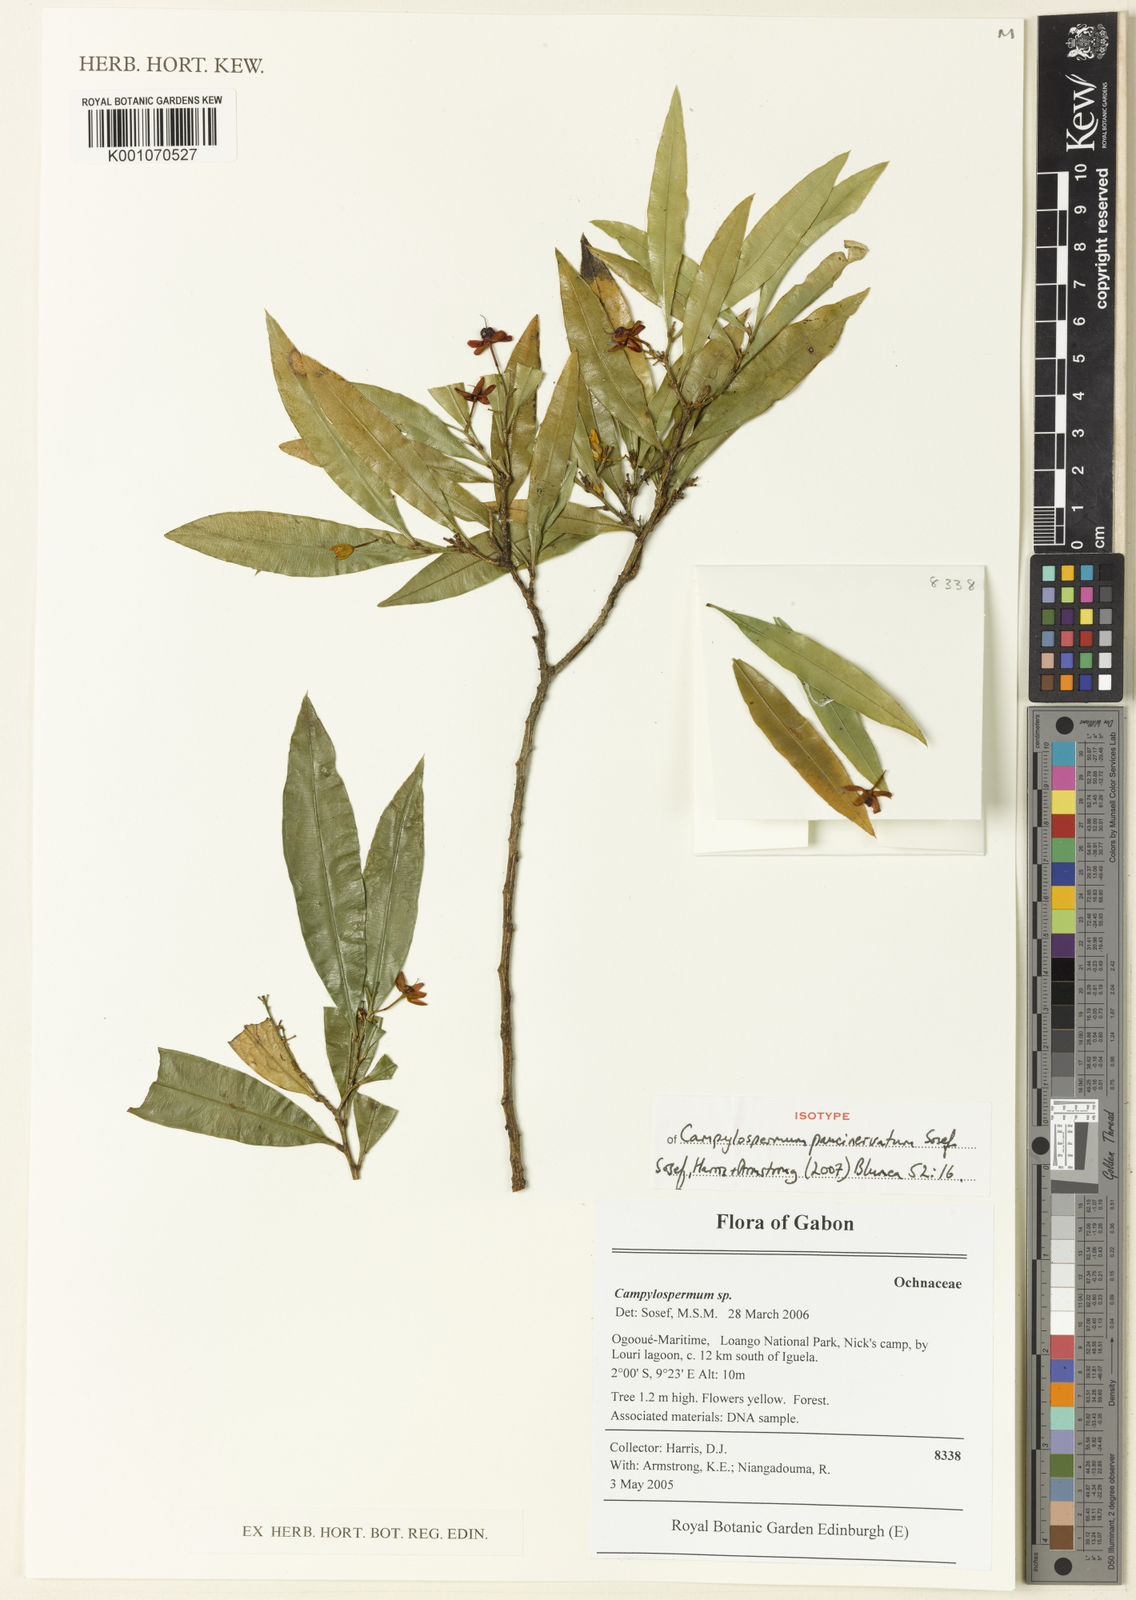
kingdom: Plantae
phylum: Tracheophyta
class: Magnoliopsida
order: Malpighiales
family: Ochnaceae
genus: Campylospermum
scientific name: Campylospermum paucinervatum
